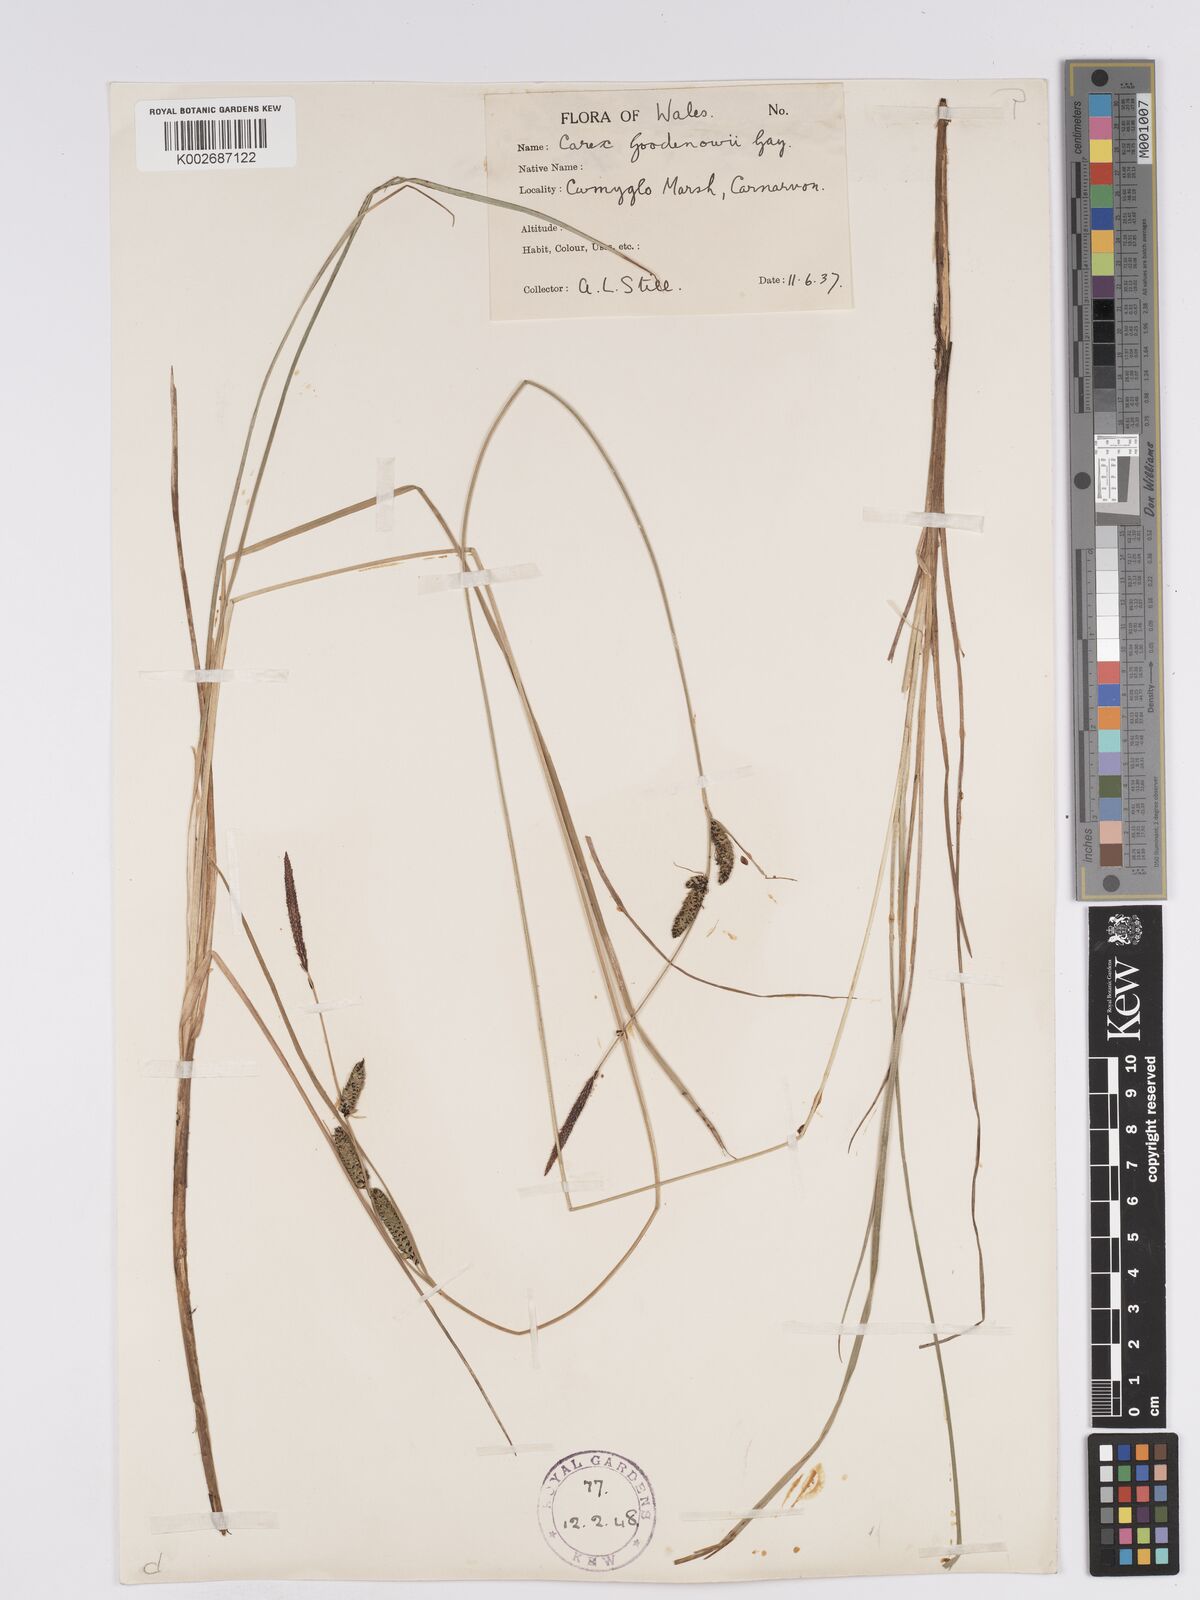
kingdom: Plantae
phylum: Tracheophyta
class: Liliopsida
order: Poales
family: Cyperaceae
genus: Carex
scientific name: Carex nigra
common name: Common sedge
